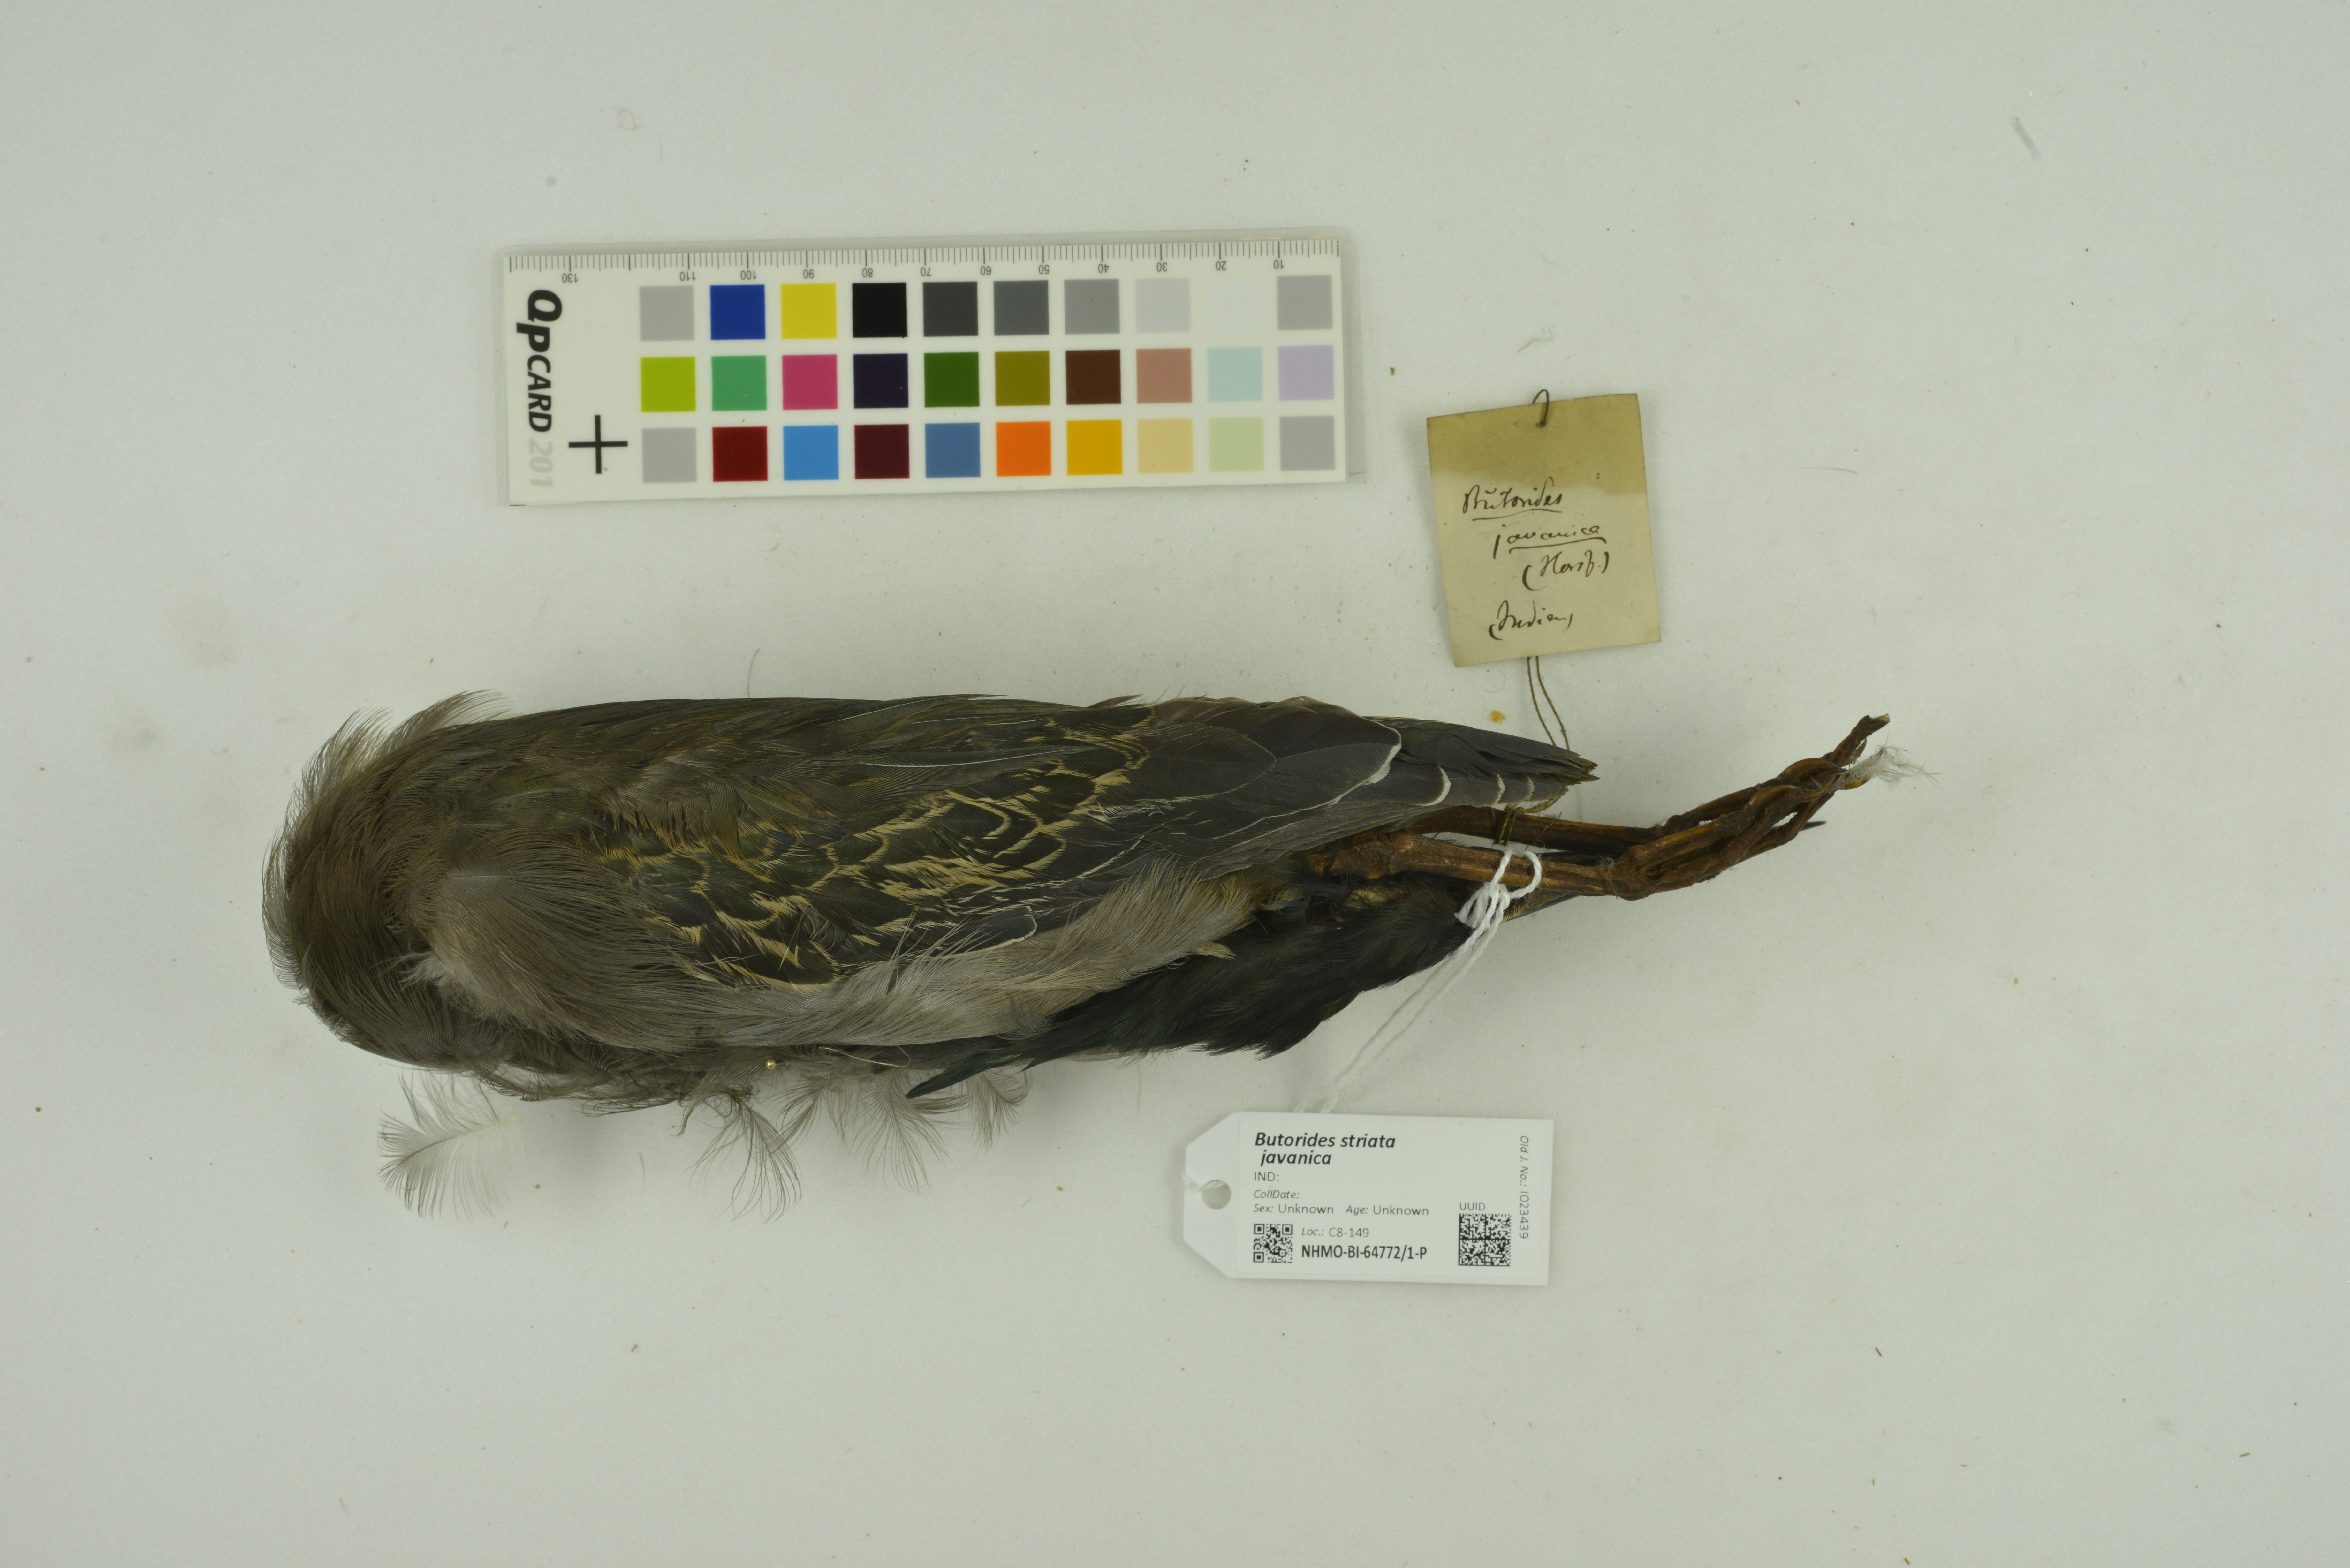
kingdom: Animalia
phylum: Chordata
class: Aves
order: Pelecaniformes
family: Ardeidae
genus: Butorides
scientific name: Butorides striata
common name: Striated heron
